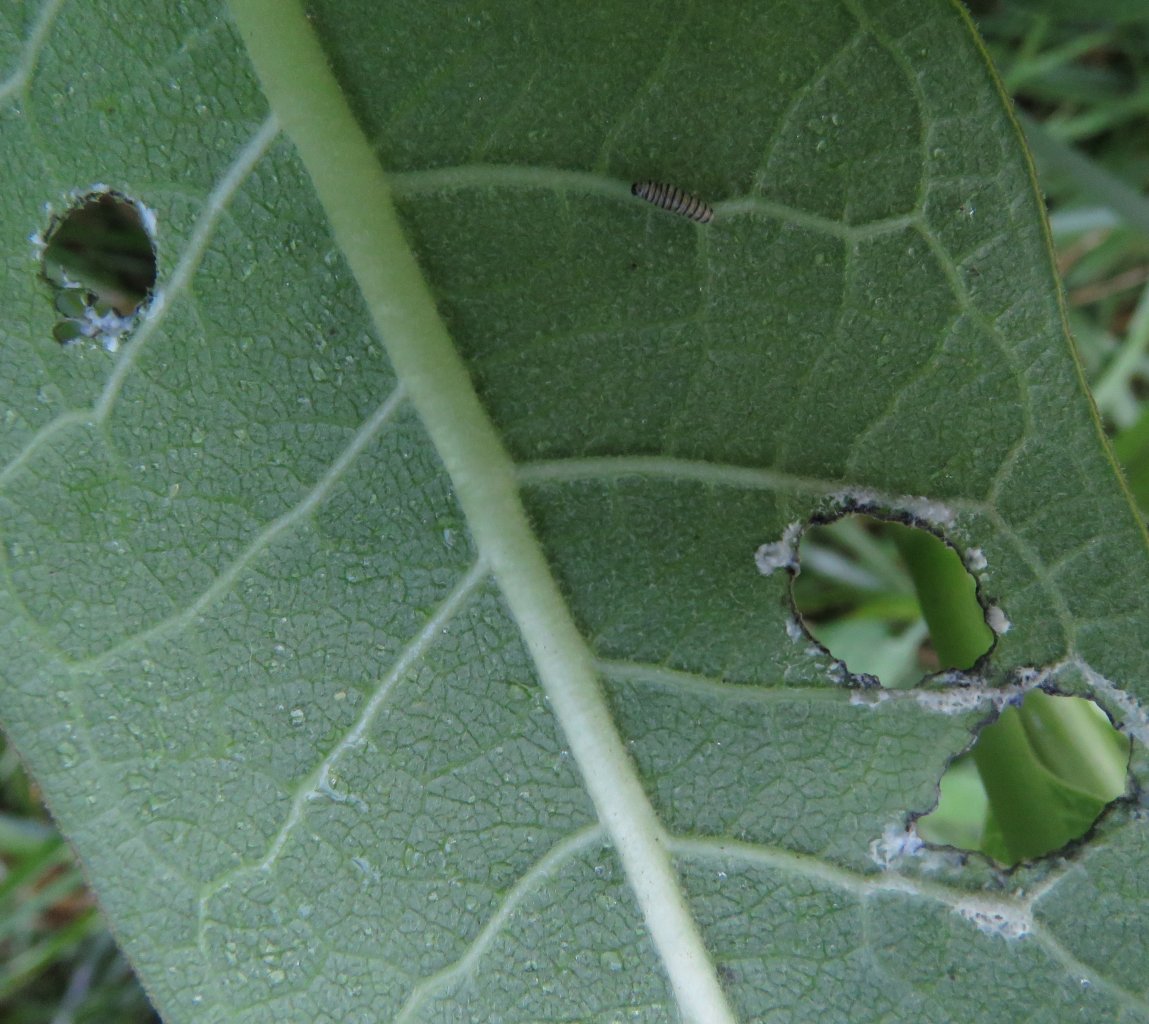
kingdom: Animalia
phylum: Arthropoda
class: Insecta
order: Lepidoptera
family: Nymphalidae
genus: Danaus
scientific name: Danaus plexippus
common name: Monarch
